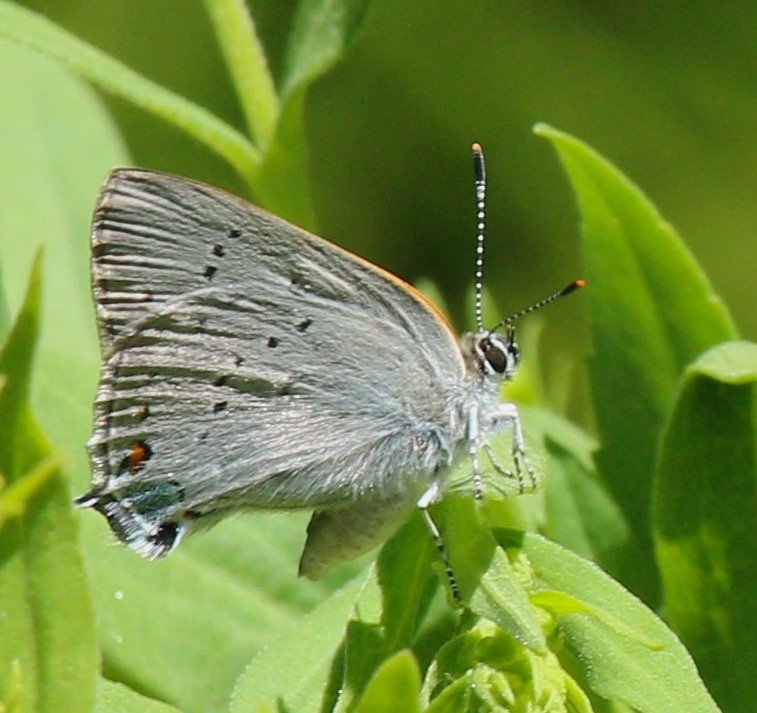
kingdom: Animalia
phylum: Arthropoda
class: Insecta
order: Lepidoptera
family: Lycaenidae
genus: Strymon
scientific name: Strymon sylvinus
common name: Sylvan Hairstreak
